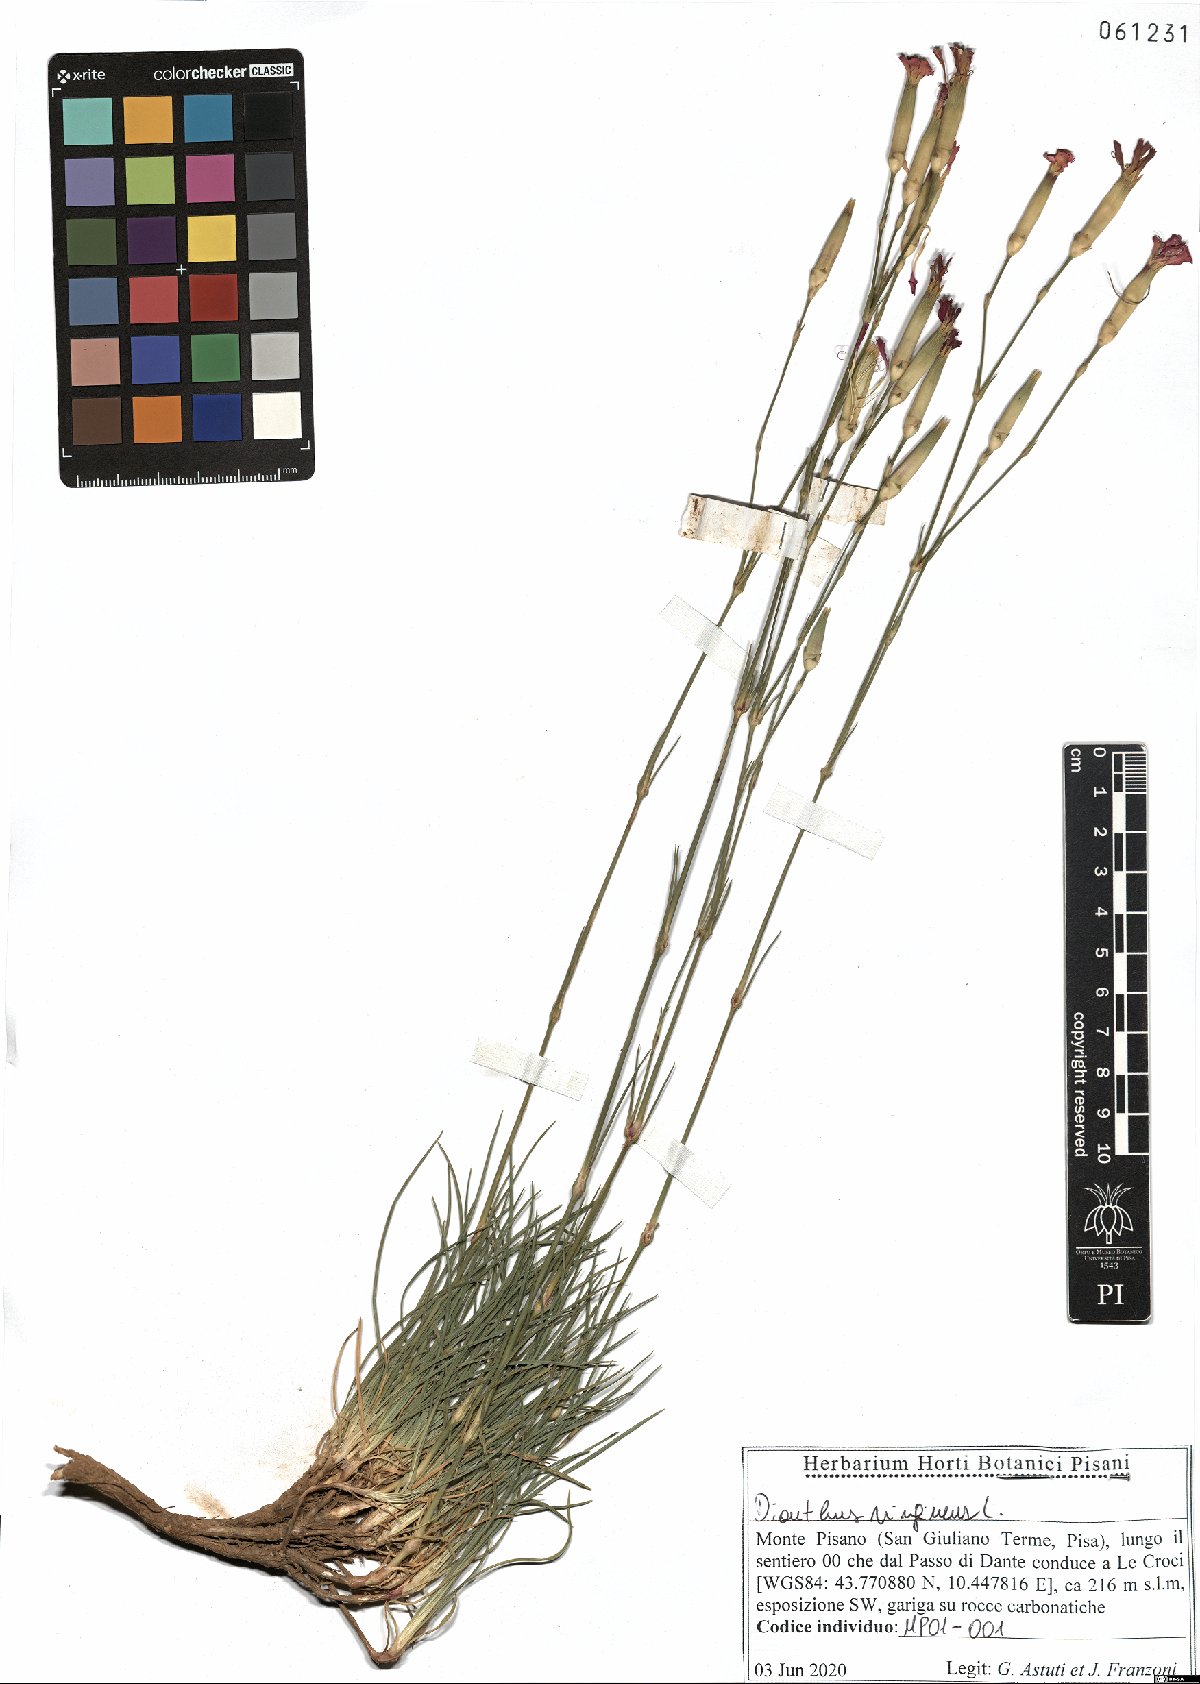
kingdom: Plantae
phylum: Tracheophyta
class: Magnoliopsida
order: Caryophyllales
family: Caryophyllaceae
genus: Dianthus
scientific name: Dianthus virgineus
